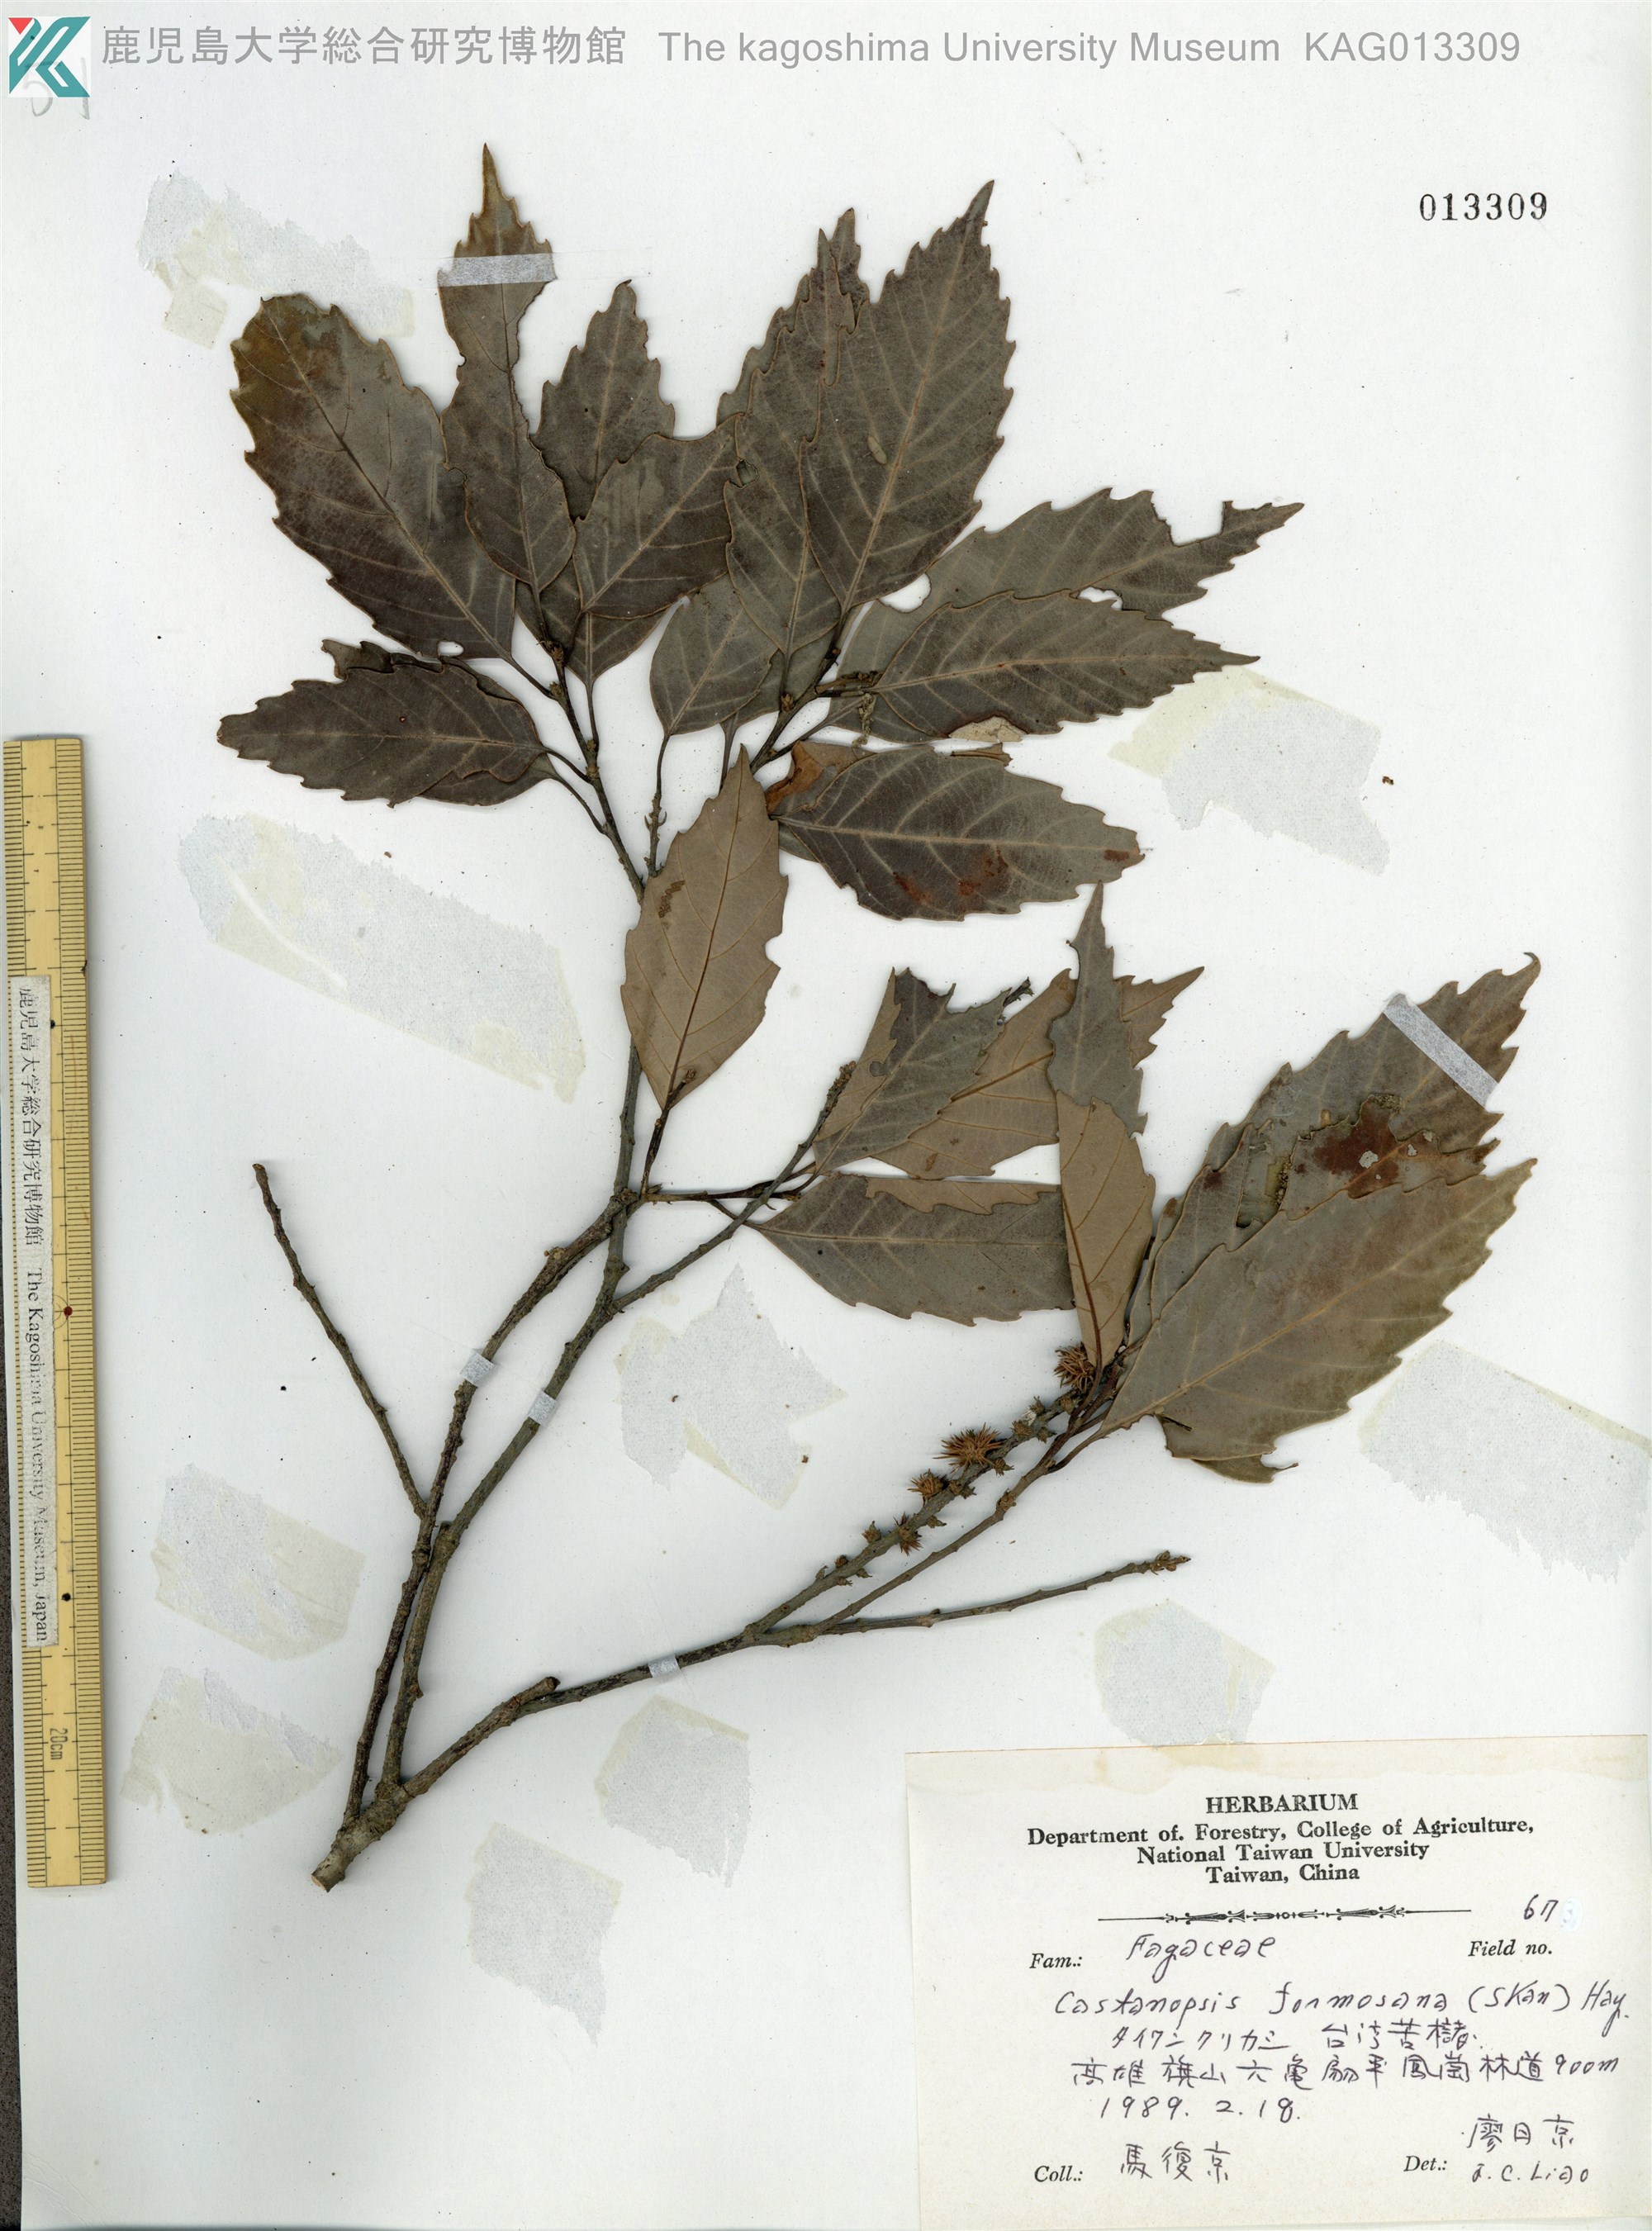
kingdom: Plantae
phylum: Tracheophyta
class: Magnoliopsida
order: Fagales
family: Fagaceae
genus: Castanopsis
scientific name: Castanopsis formosana
